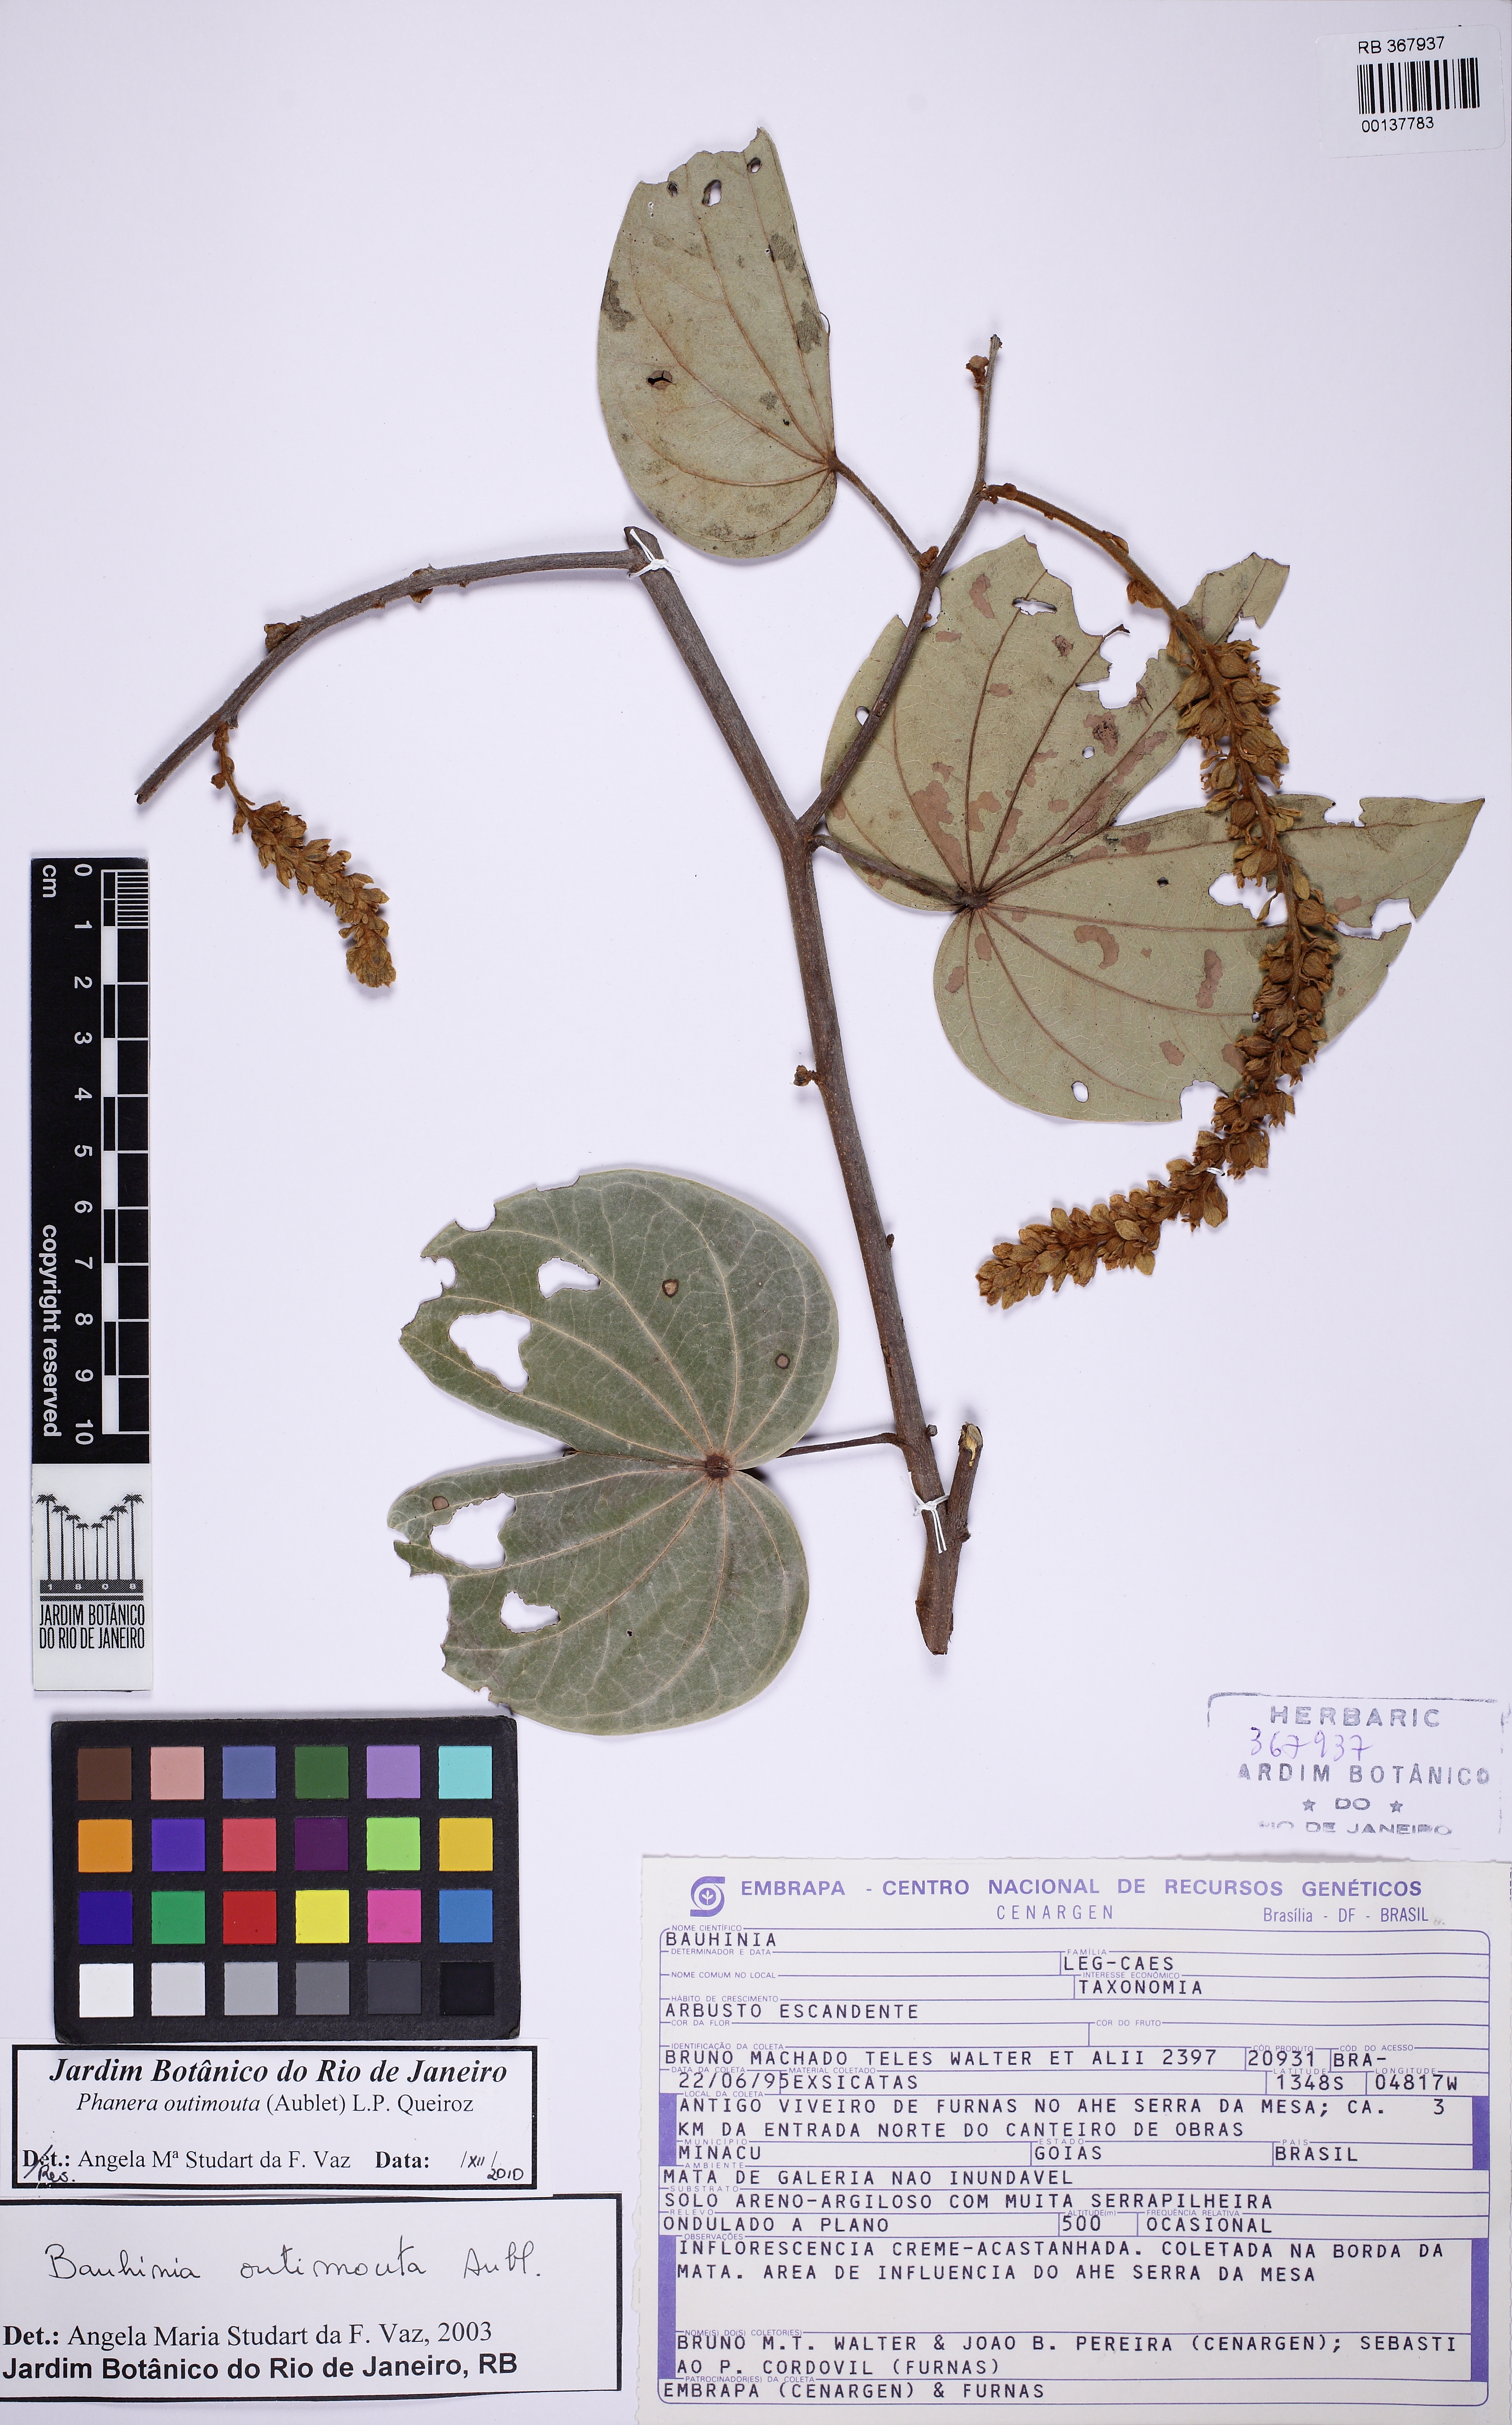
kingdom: Plantae
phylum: Tracheophyta
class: Magnoliopsida
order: Fabales
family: Fabaceae
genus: Schnella
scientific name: Schnella outimouta
